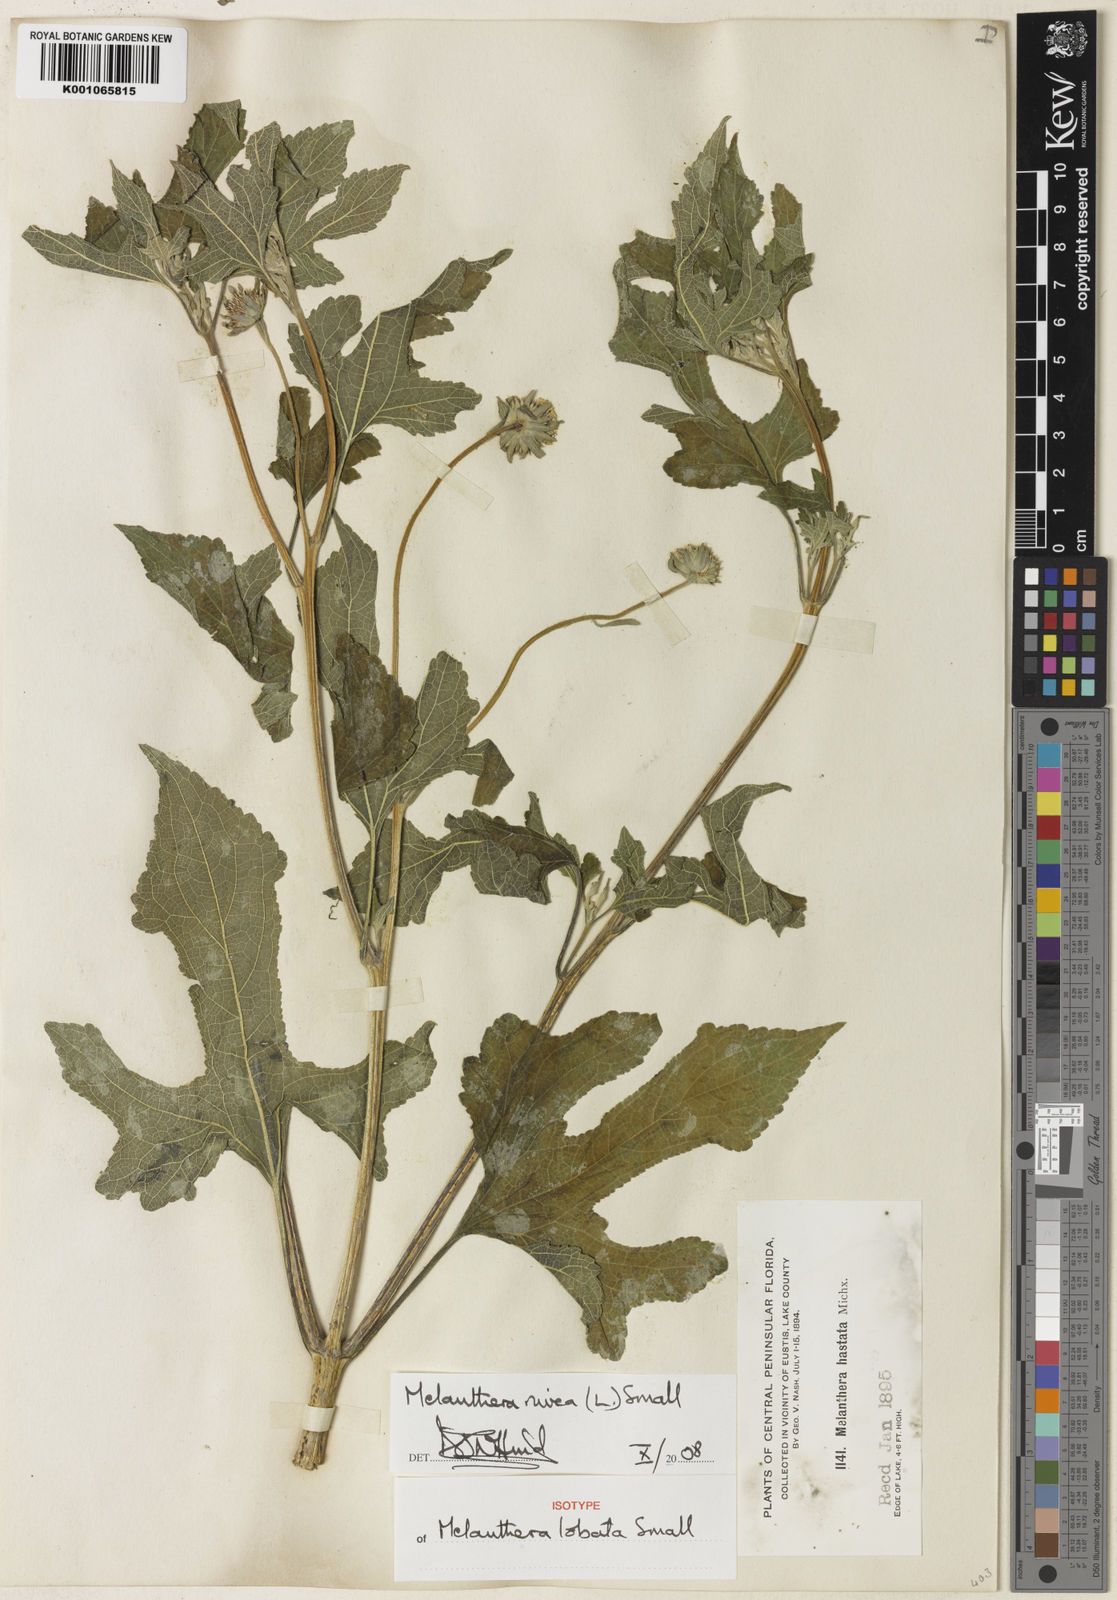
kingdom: Plantae
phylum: Tracheophyta
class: Magnoliopsida
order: Asterales
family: Asteraceae
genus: Melanthera
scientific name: Melanthera nivea
